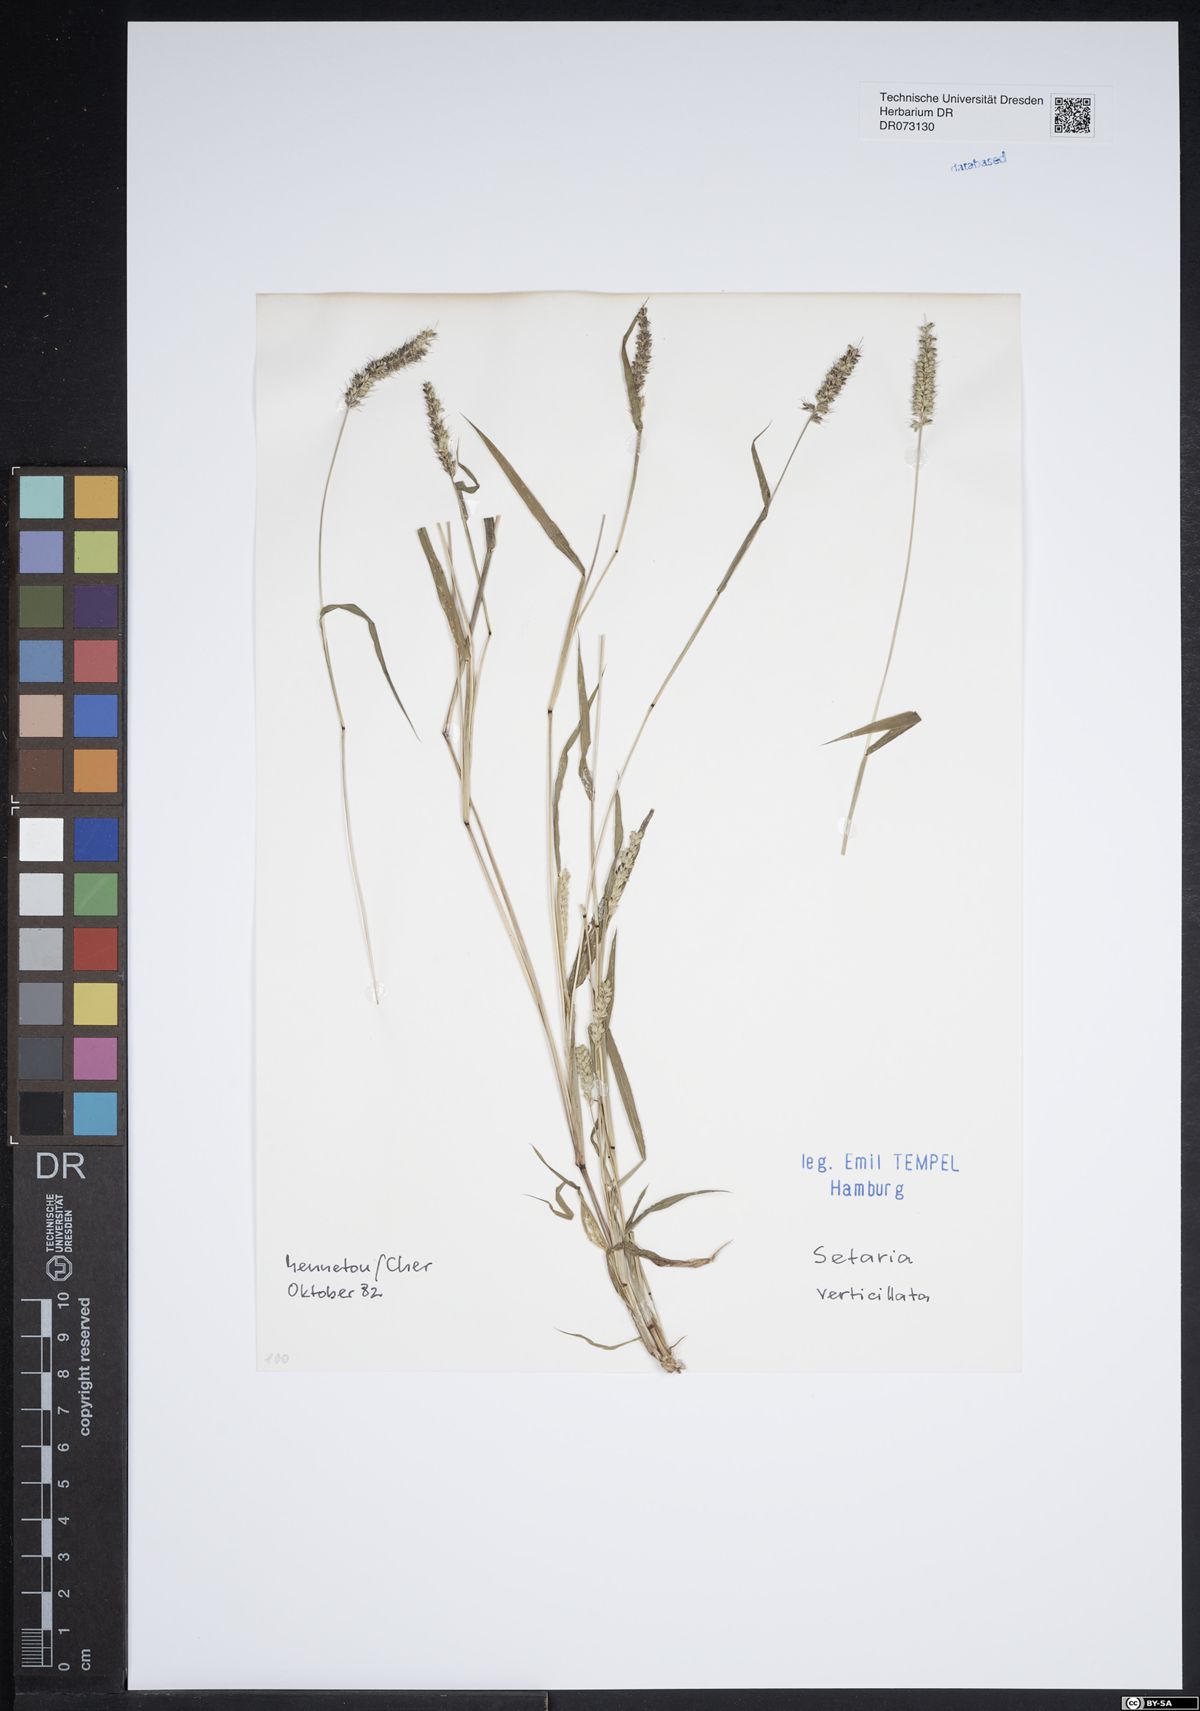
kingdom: Plantae
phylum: Tracheophyta
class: Liliopsida
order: Poales
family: Poaceae
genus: Setaria
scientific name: Setaria verticillata
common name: Hooked bristlegrass
